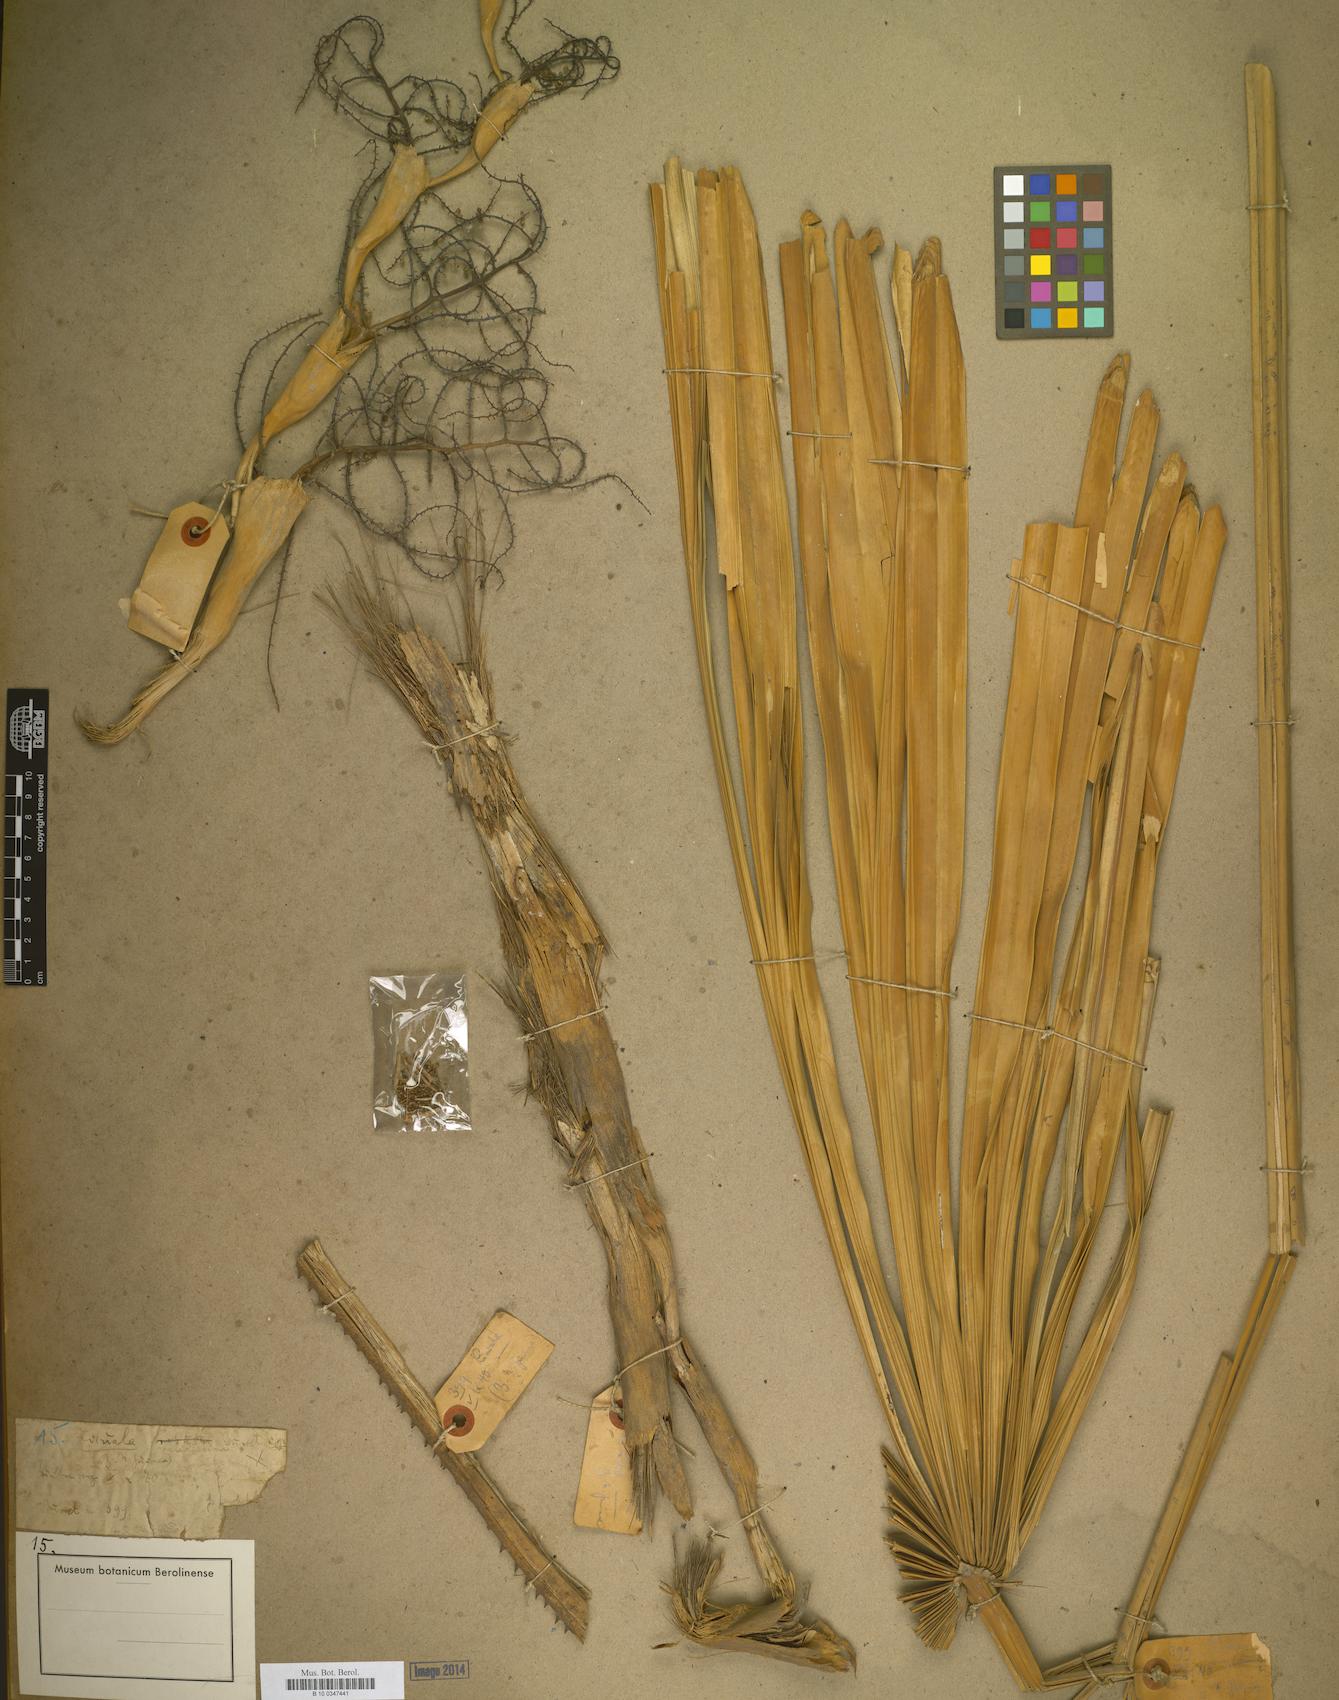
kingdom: Plantae
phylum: Tracheophyta
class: Liliopsida
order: Arecales
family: Arecaceae
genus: Licuala
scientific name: Licuala
